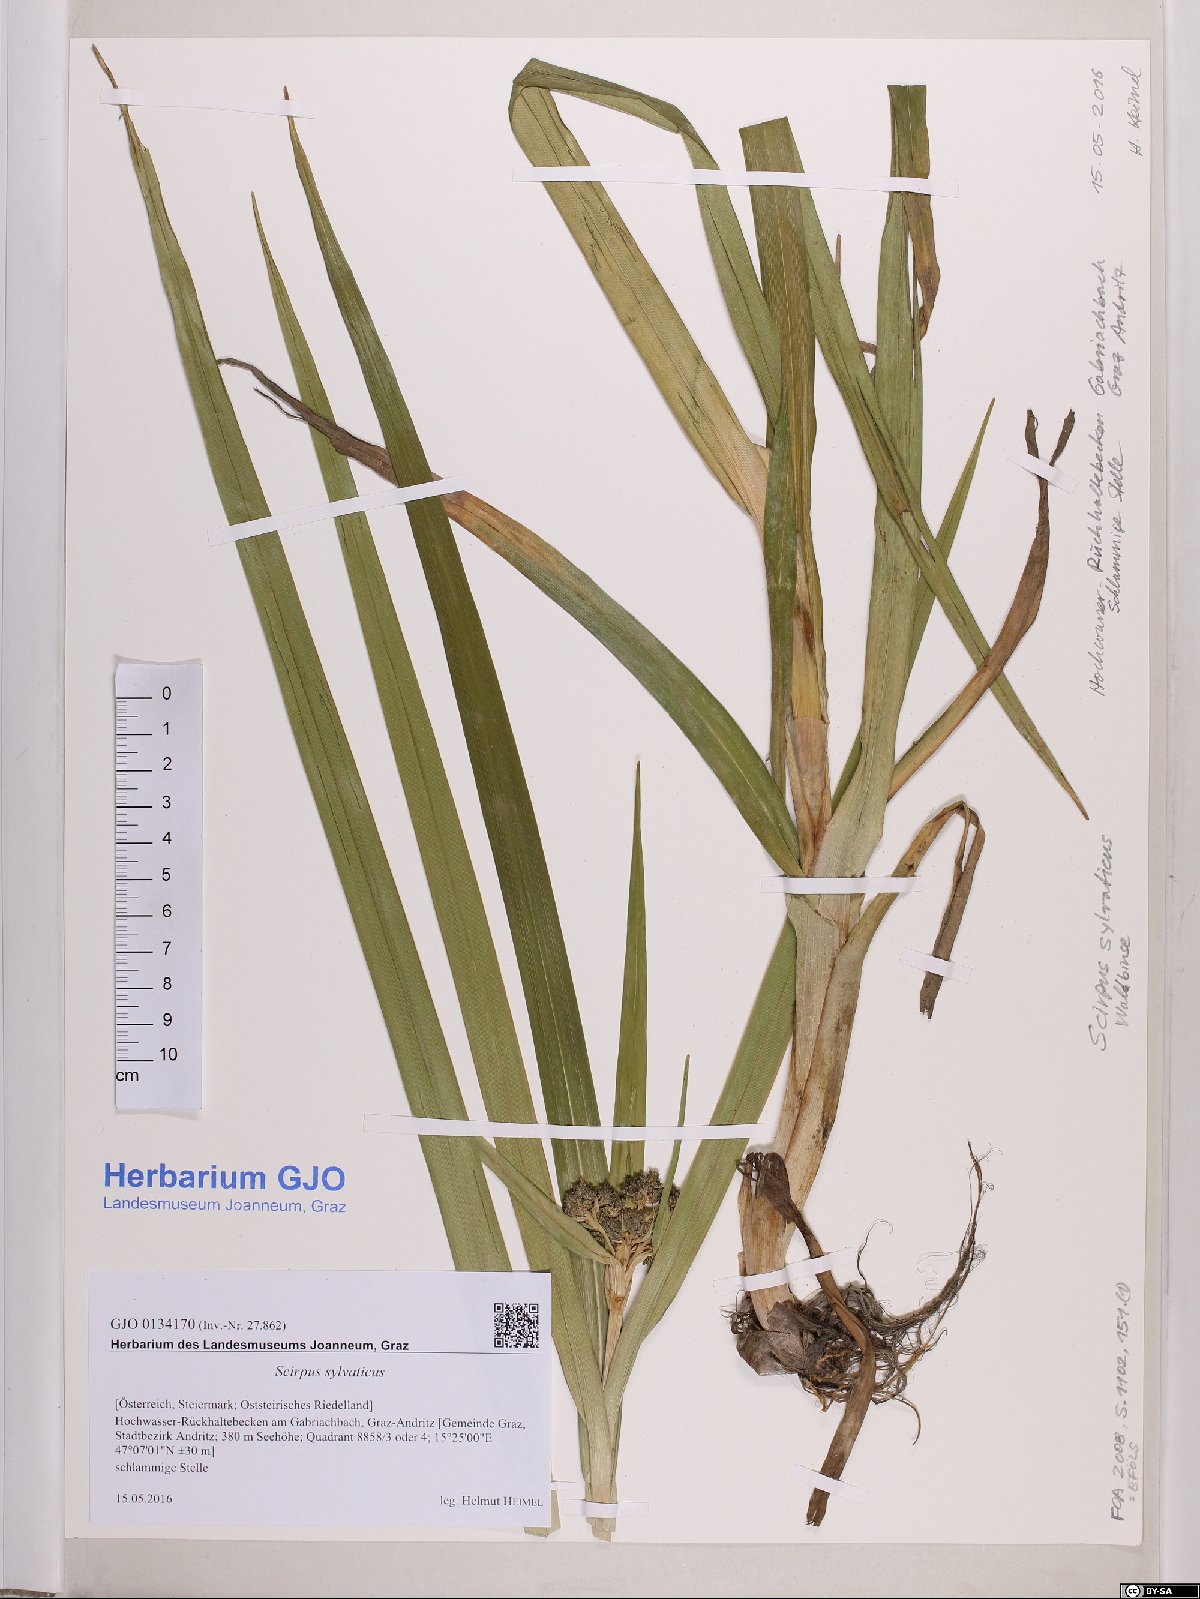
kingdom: Plantae
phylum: Tracheophyta
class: Liliopsida
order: Poales
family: Cyperaceae
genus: Scirpus
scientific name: Scirpus sylvaticus
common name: Wood club-rush
